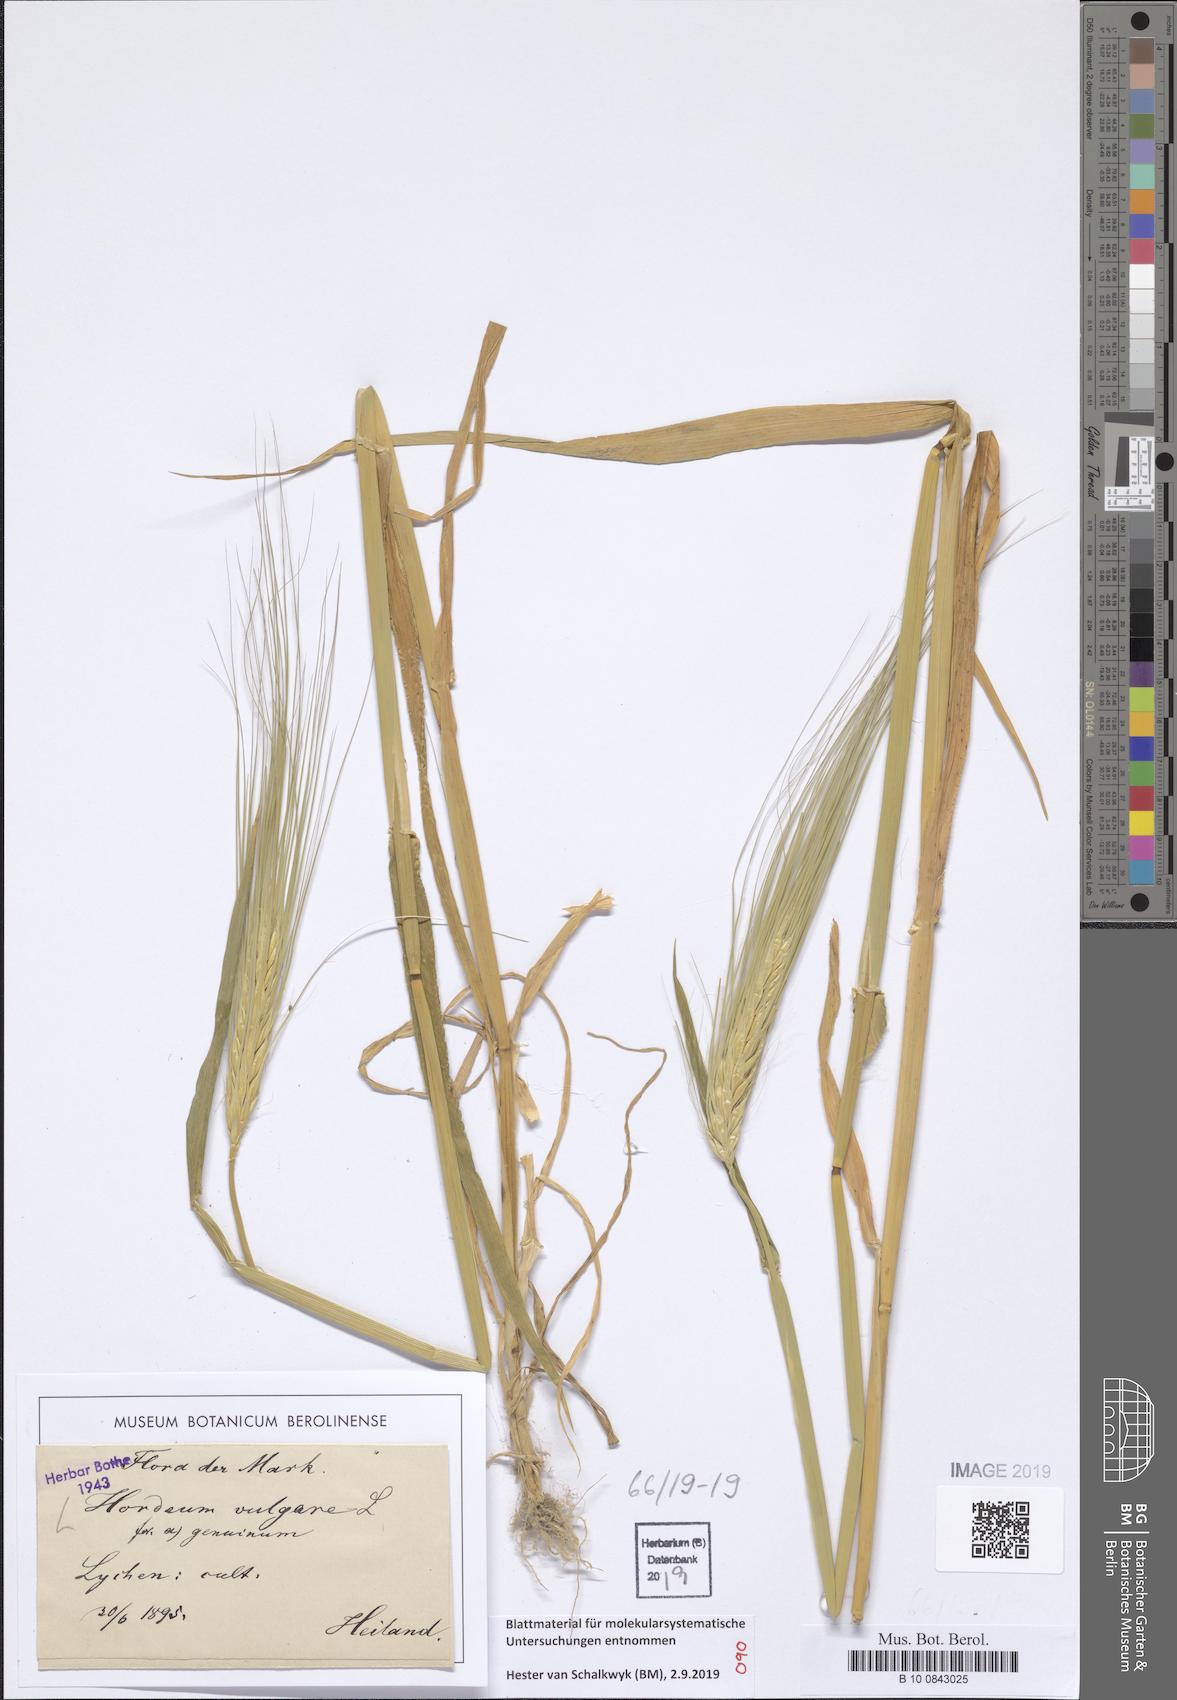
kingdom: Plantae
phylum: Tracheophyta
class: Liliopsida
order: Poales
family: Poaceae
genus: Hordeum
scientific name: Hordeum vulgare
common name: Common barley
